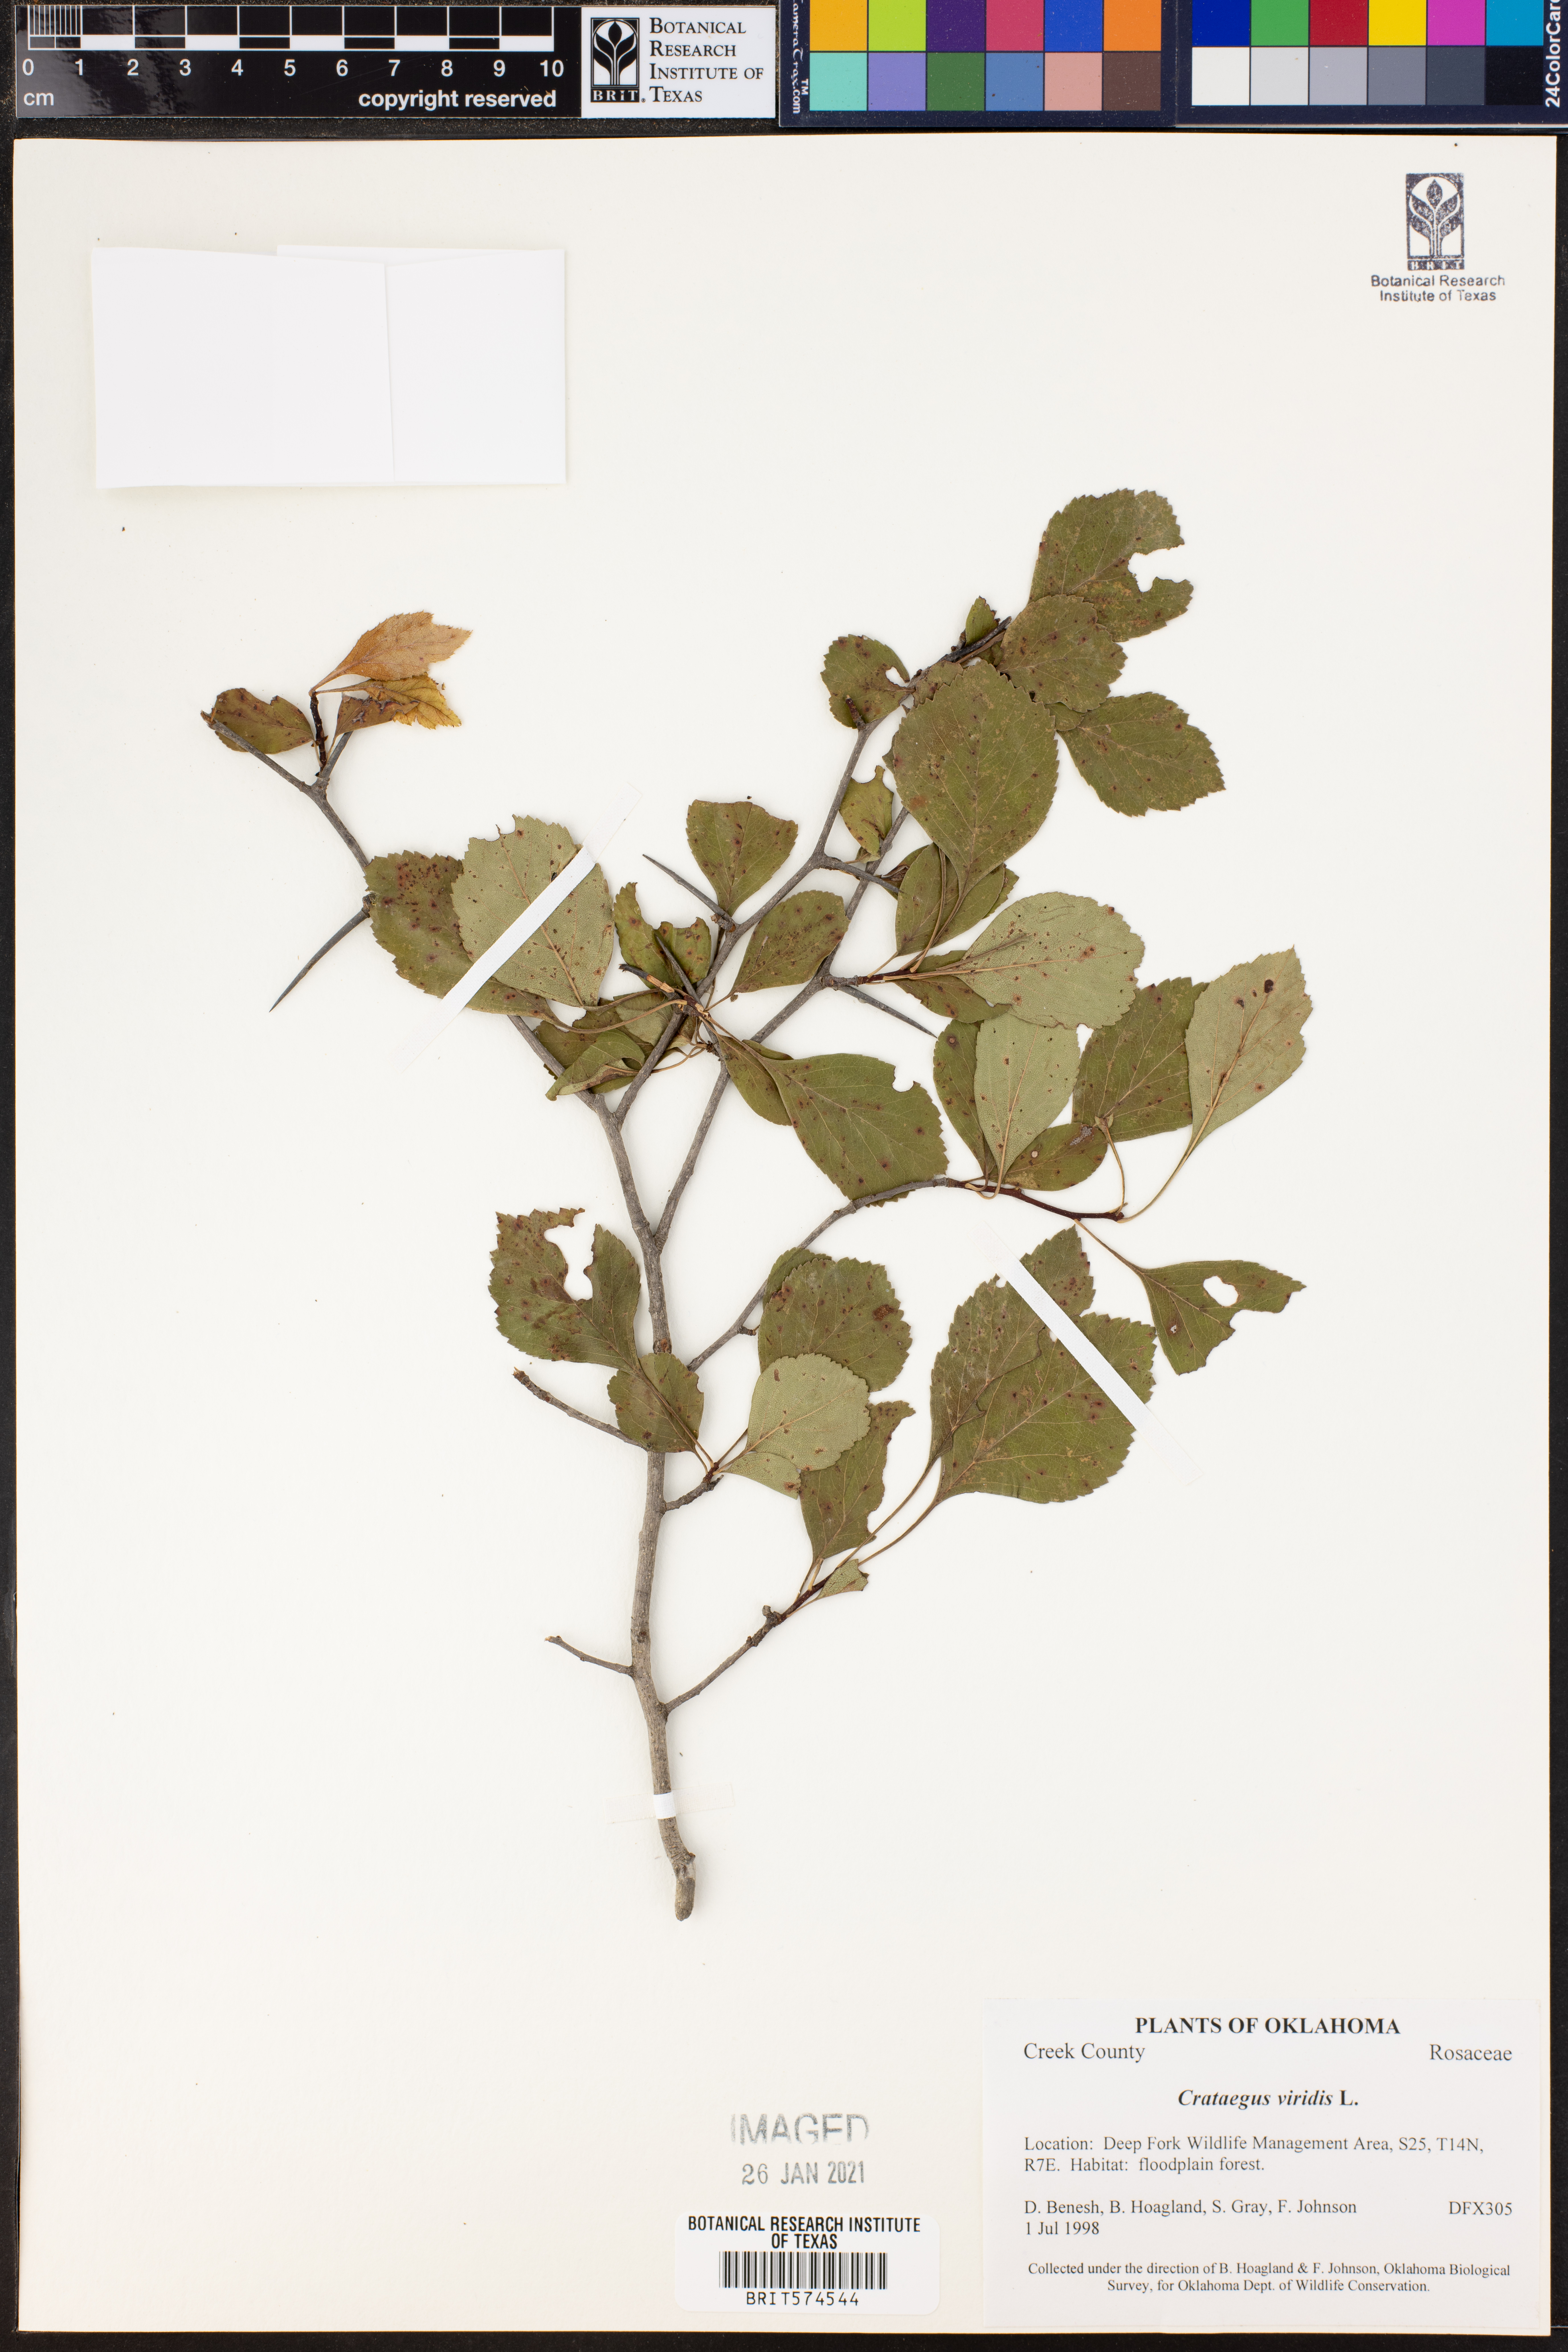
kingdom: Plantae
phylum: Tracheophyta
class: Magnoliopsida
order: Rosales
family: Rosaceae
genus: Crataegus
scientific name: Crataegus viridis
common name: Southernthorn
